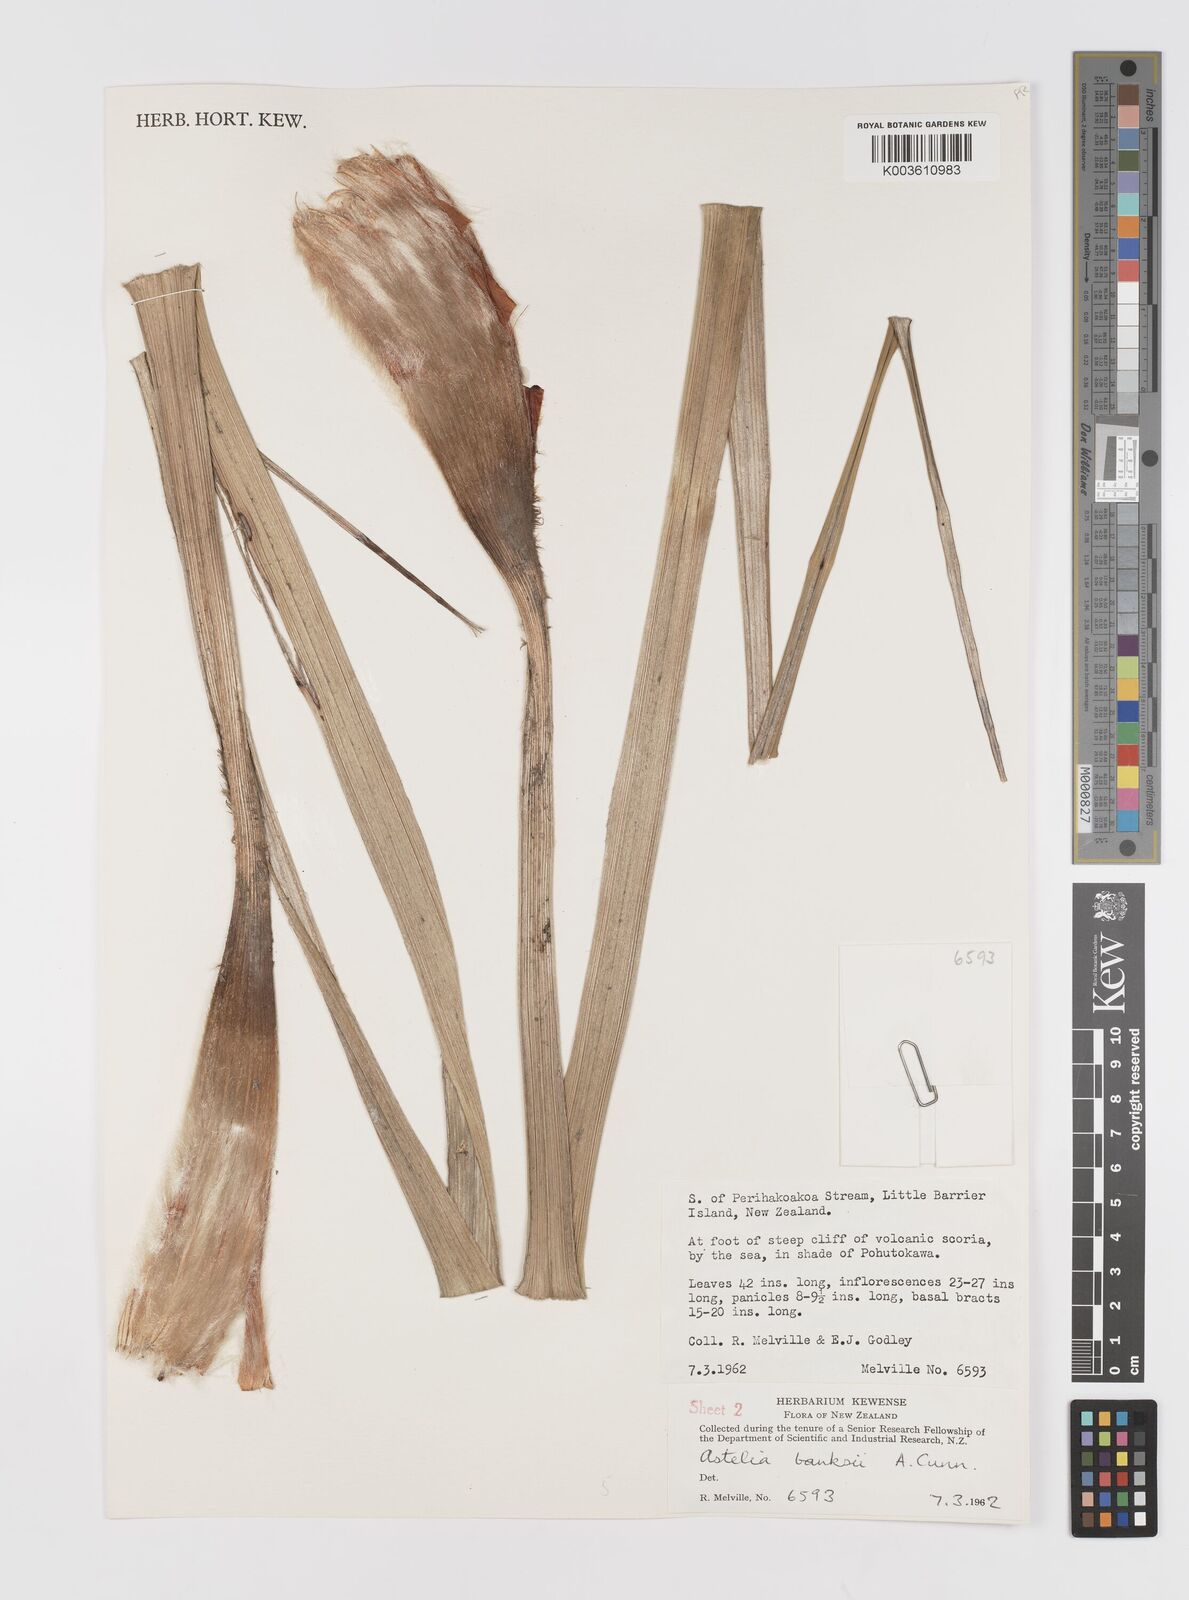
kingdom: Plantae
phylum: Tracheophyta
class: Liliopsida
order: Asparagales
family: Asteliaceae
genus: Astelia
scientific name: Astelia banksii
